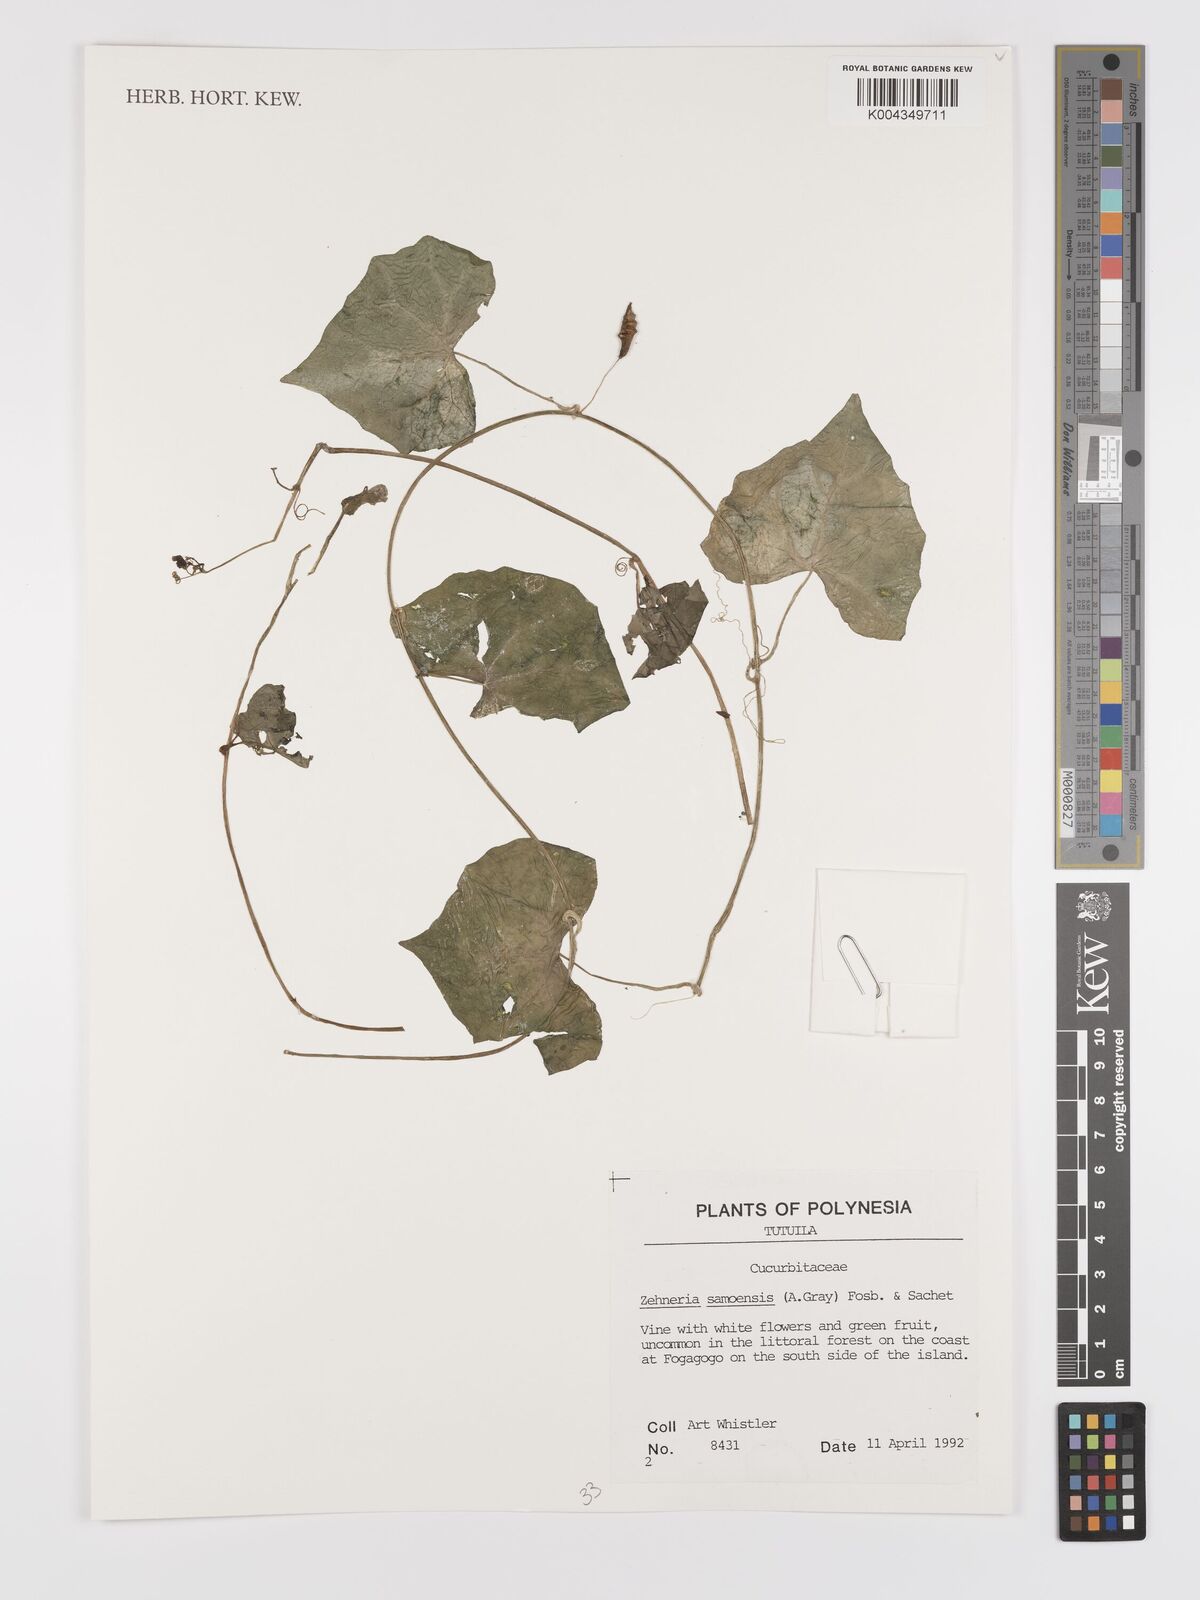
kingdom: Plantae
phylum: Tracheophyta
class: Magnoliopsida
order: Cucurbitales
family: Cucurbitaceae
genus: Zehneria
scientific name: Zehneria mucronata
